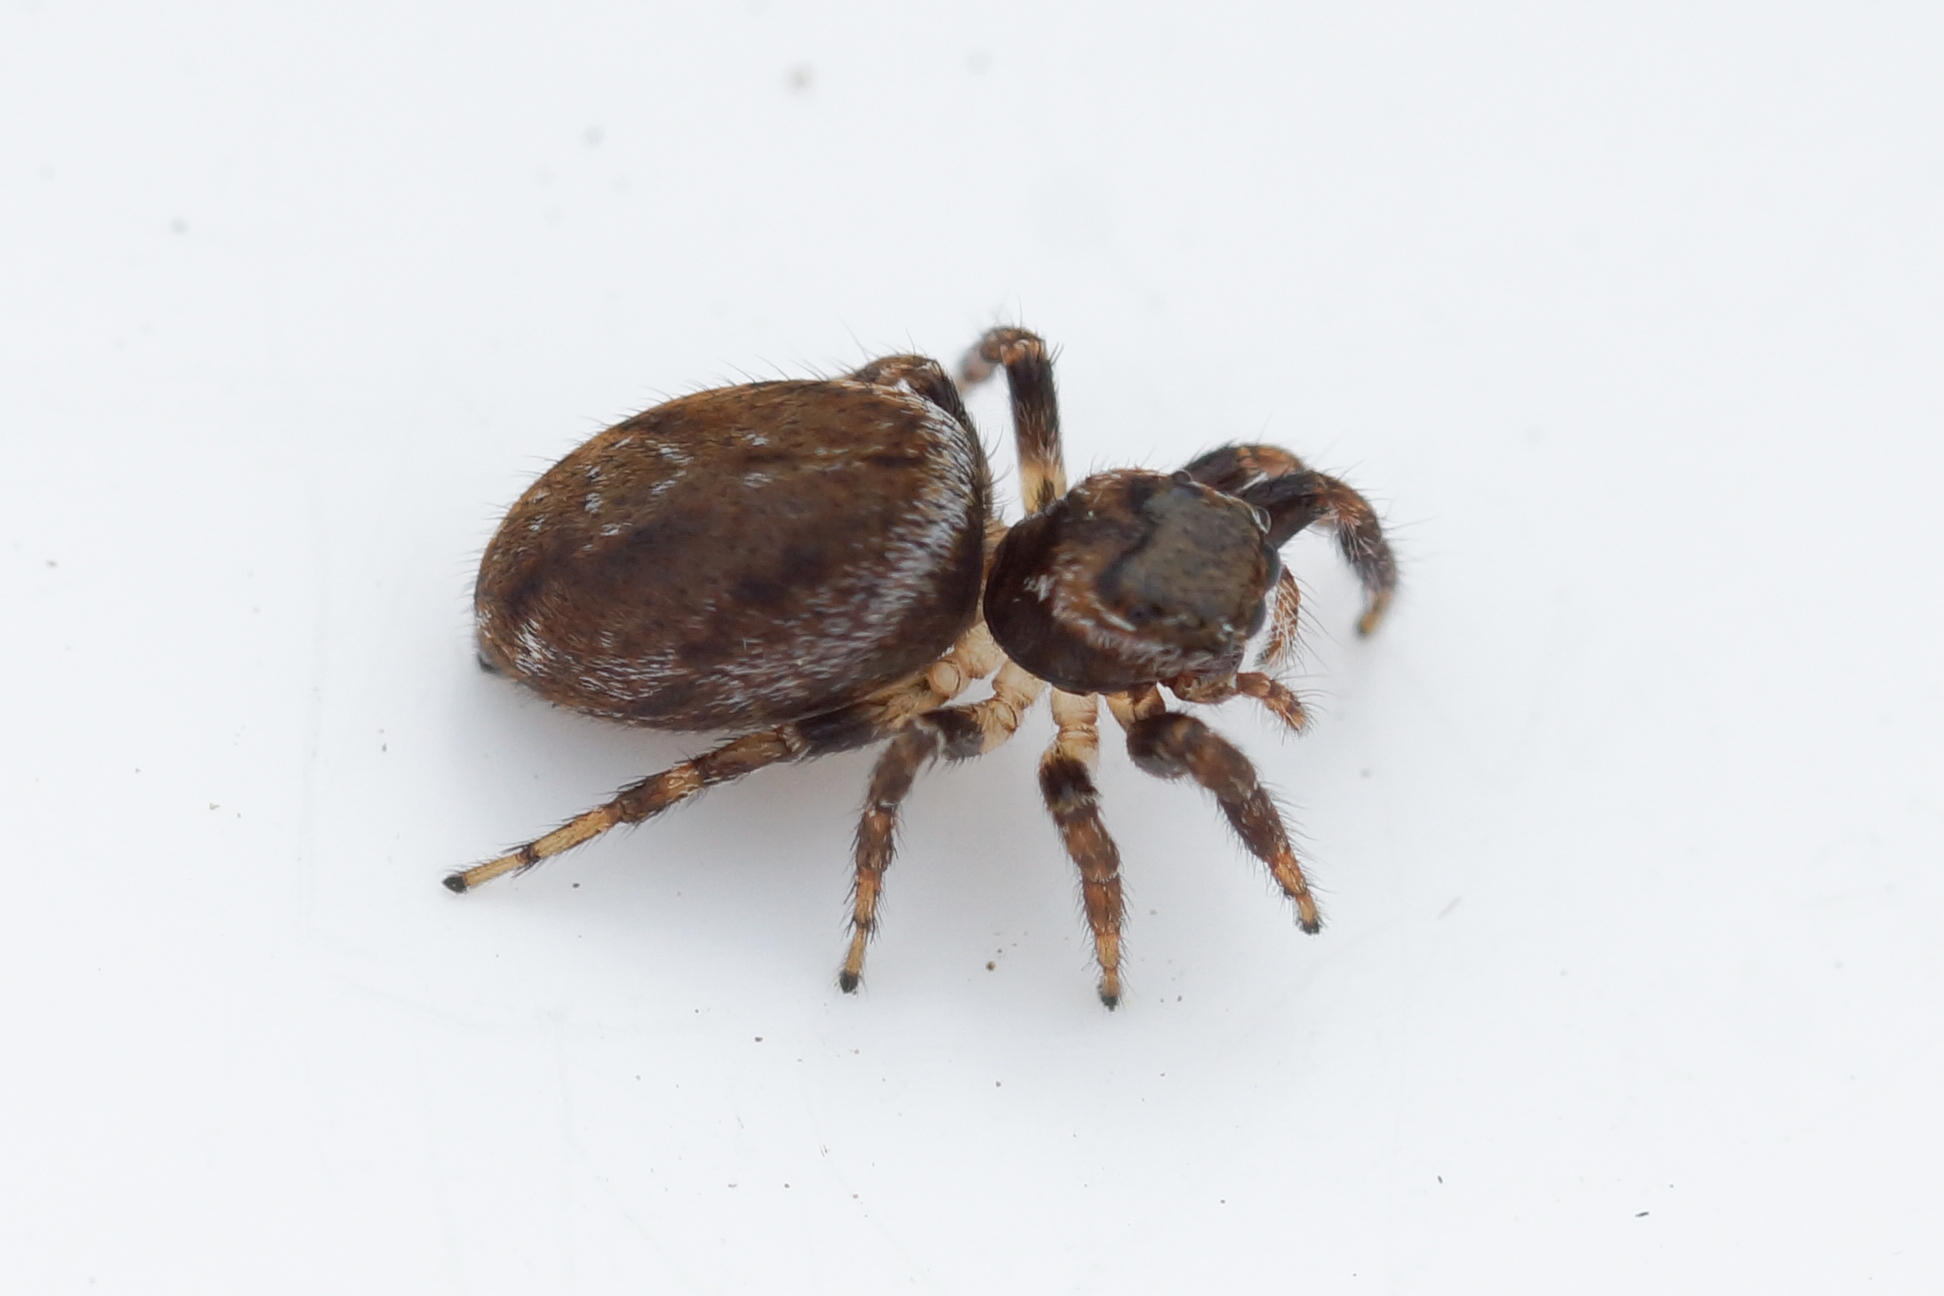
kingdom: Animalia
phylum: Arthropoda
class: Arachnida
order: Araneae
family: Salticidae
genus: Evarcha
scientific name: Evarcha falcata
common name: Broget springedderkop
